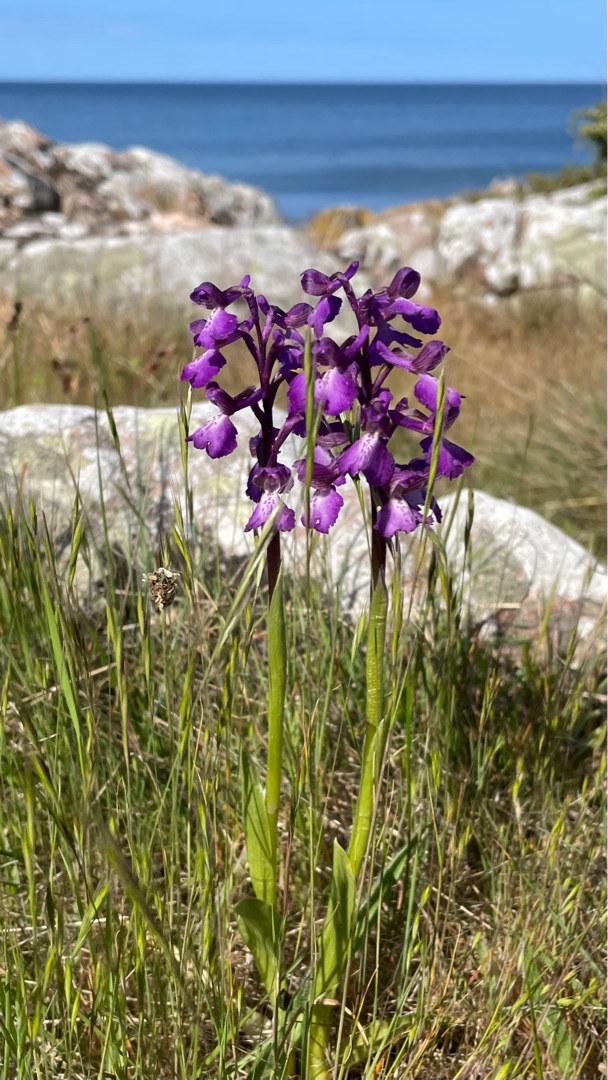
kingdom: Plantae
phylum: Tracheophyta
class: Liliopsida
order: Asparagales
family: Orchidaceae
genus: Anacamptis
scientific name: Anacamptis morio
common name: Salepgøgeurt
